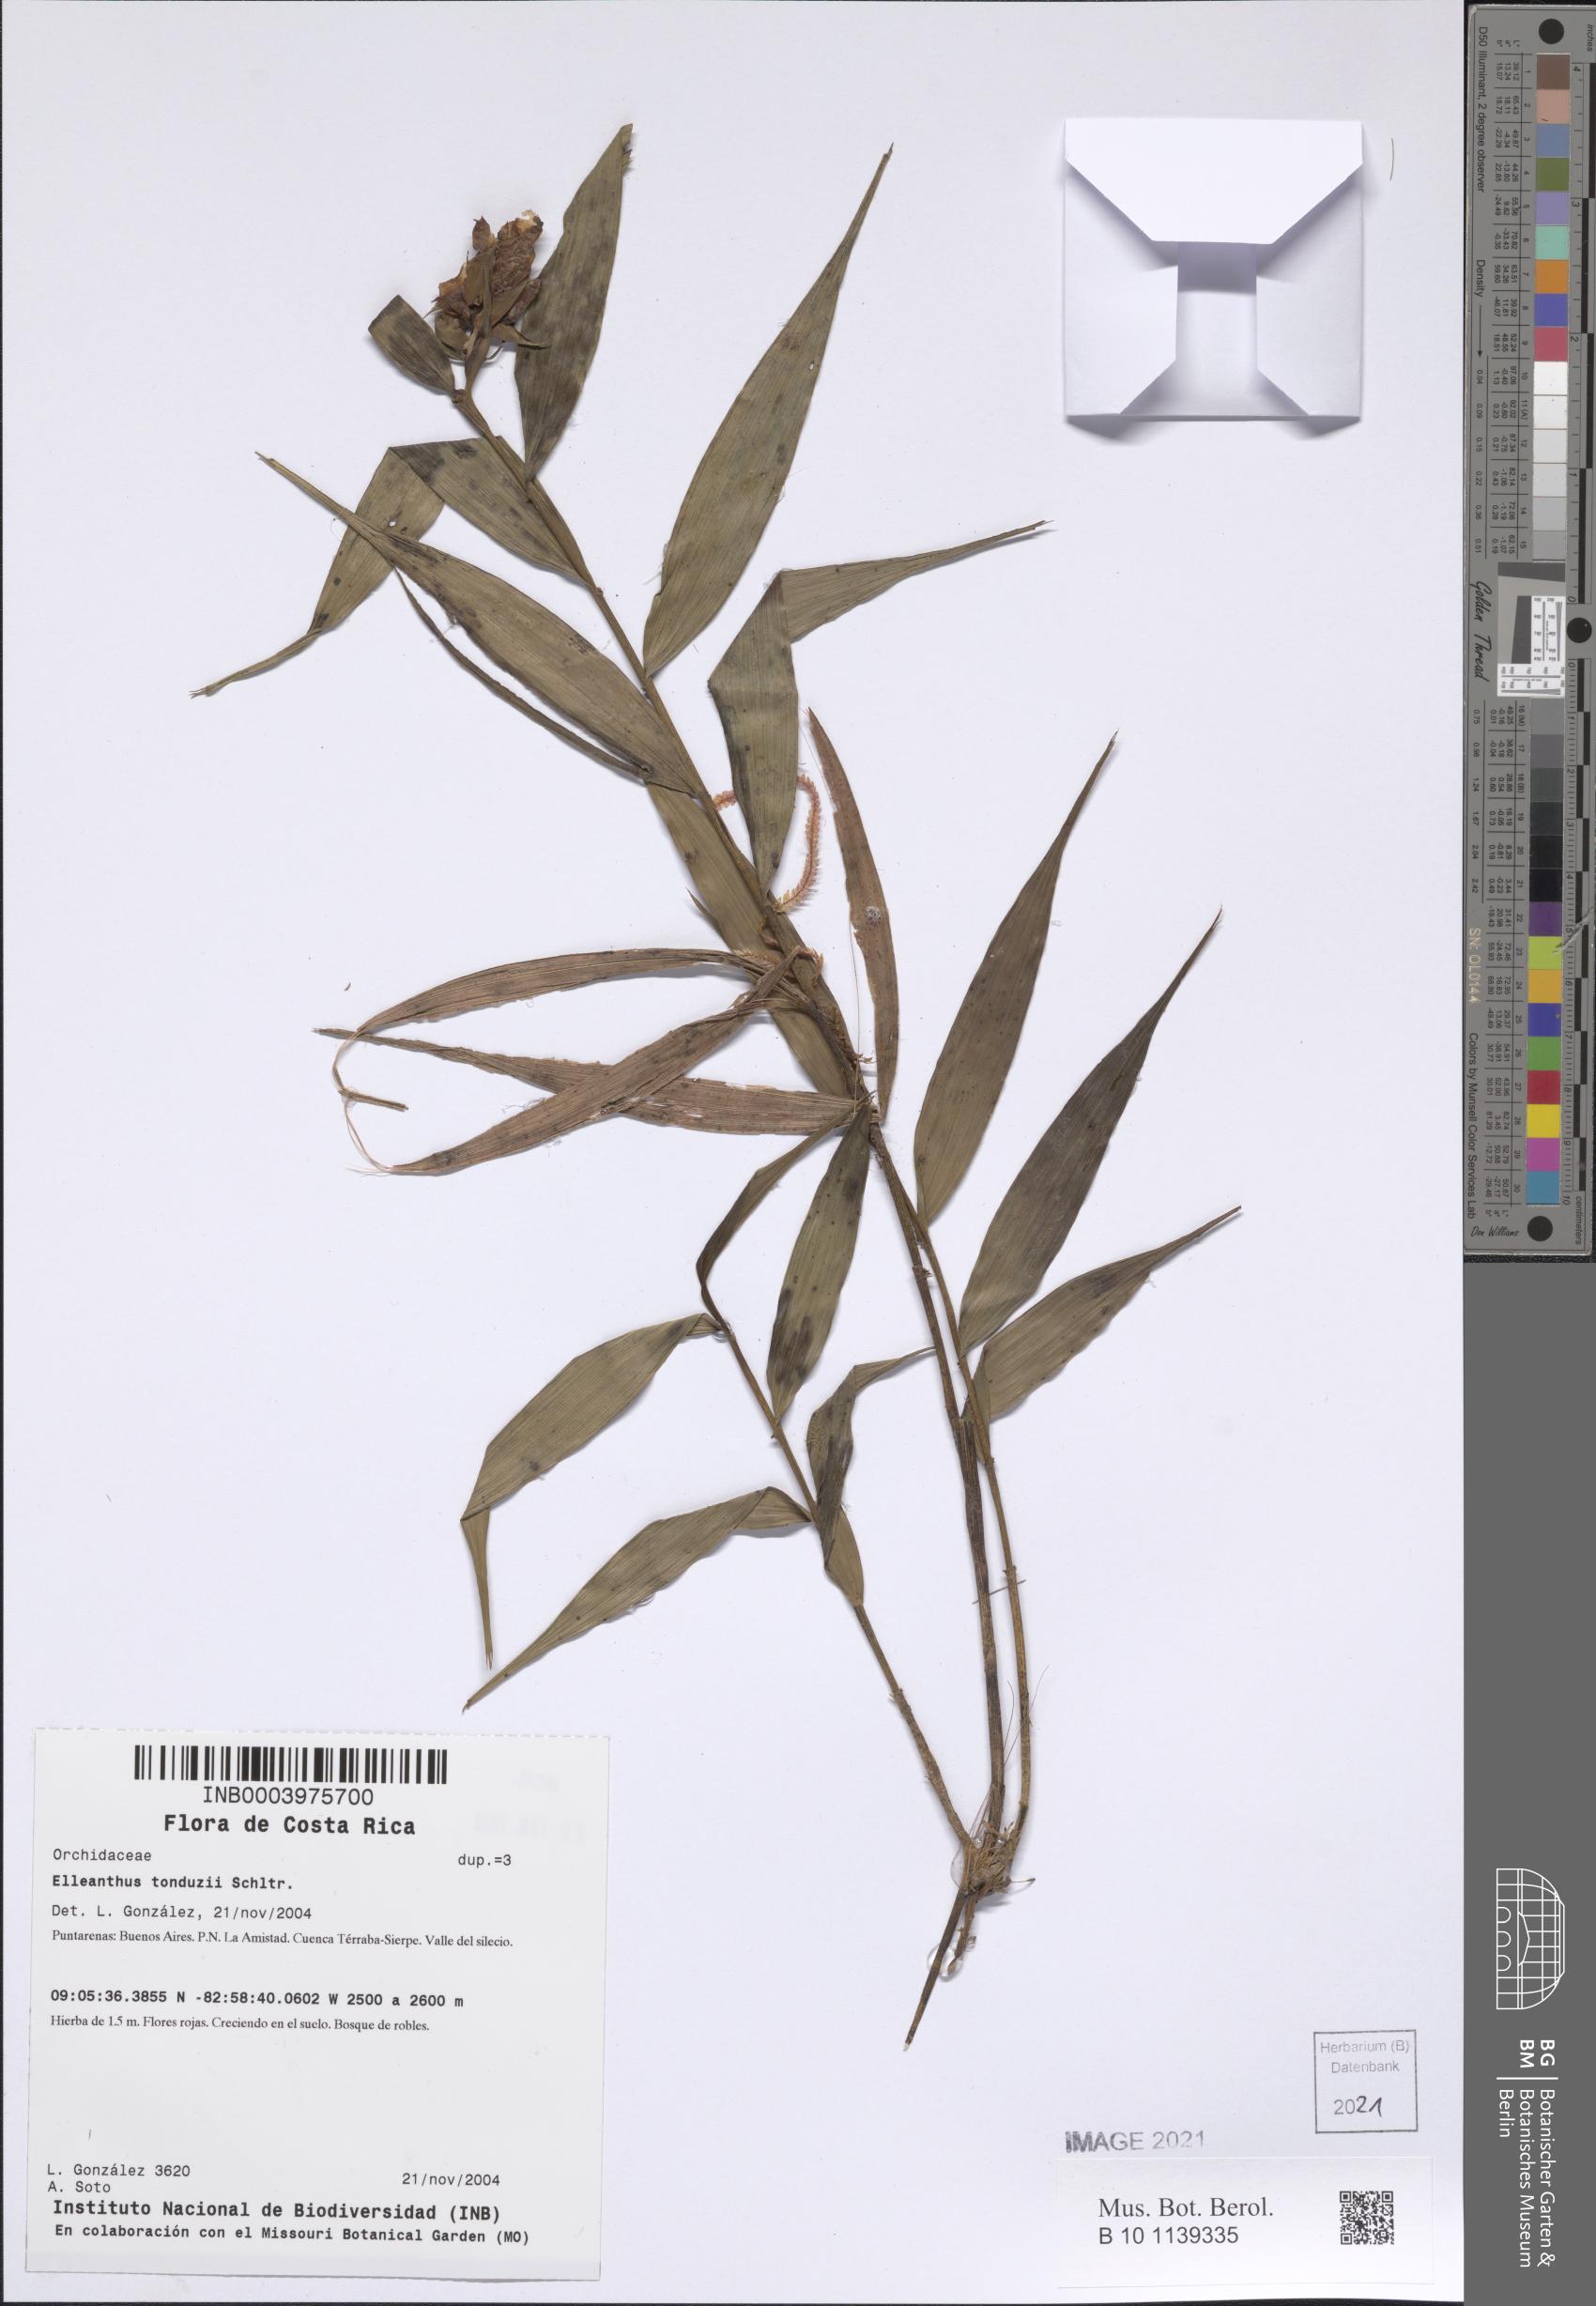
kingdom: Plantae
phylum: Tracheophyta
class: Liliopsida
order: Asparagales
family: Orchidaceae
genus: Elleanthus
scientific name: Elleanthus tonduzii
